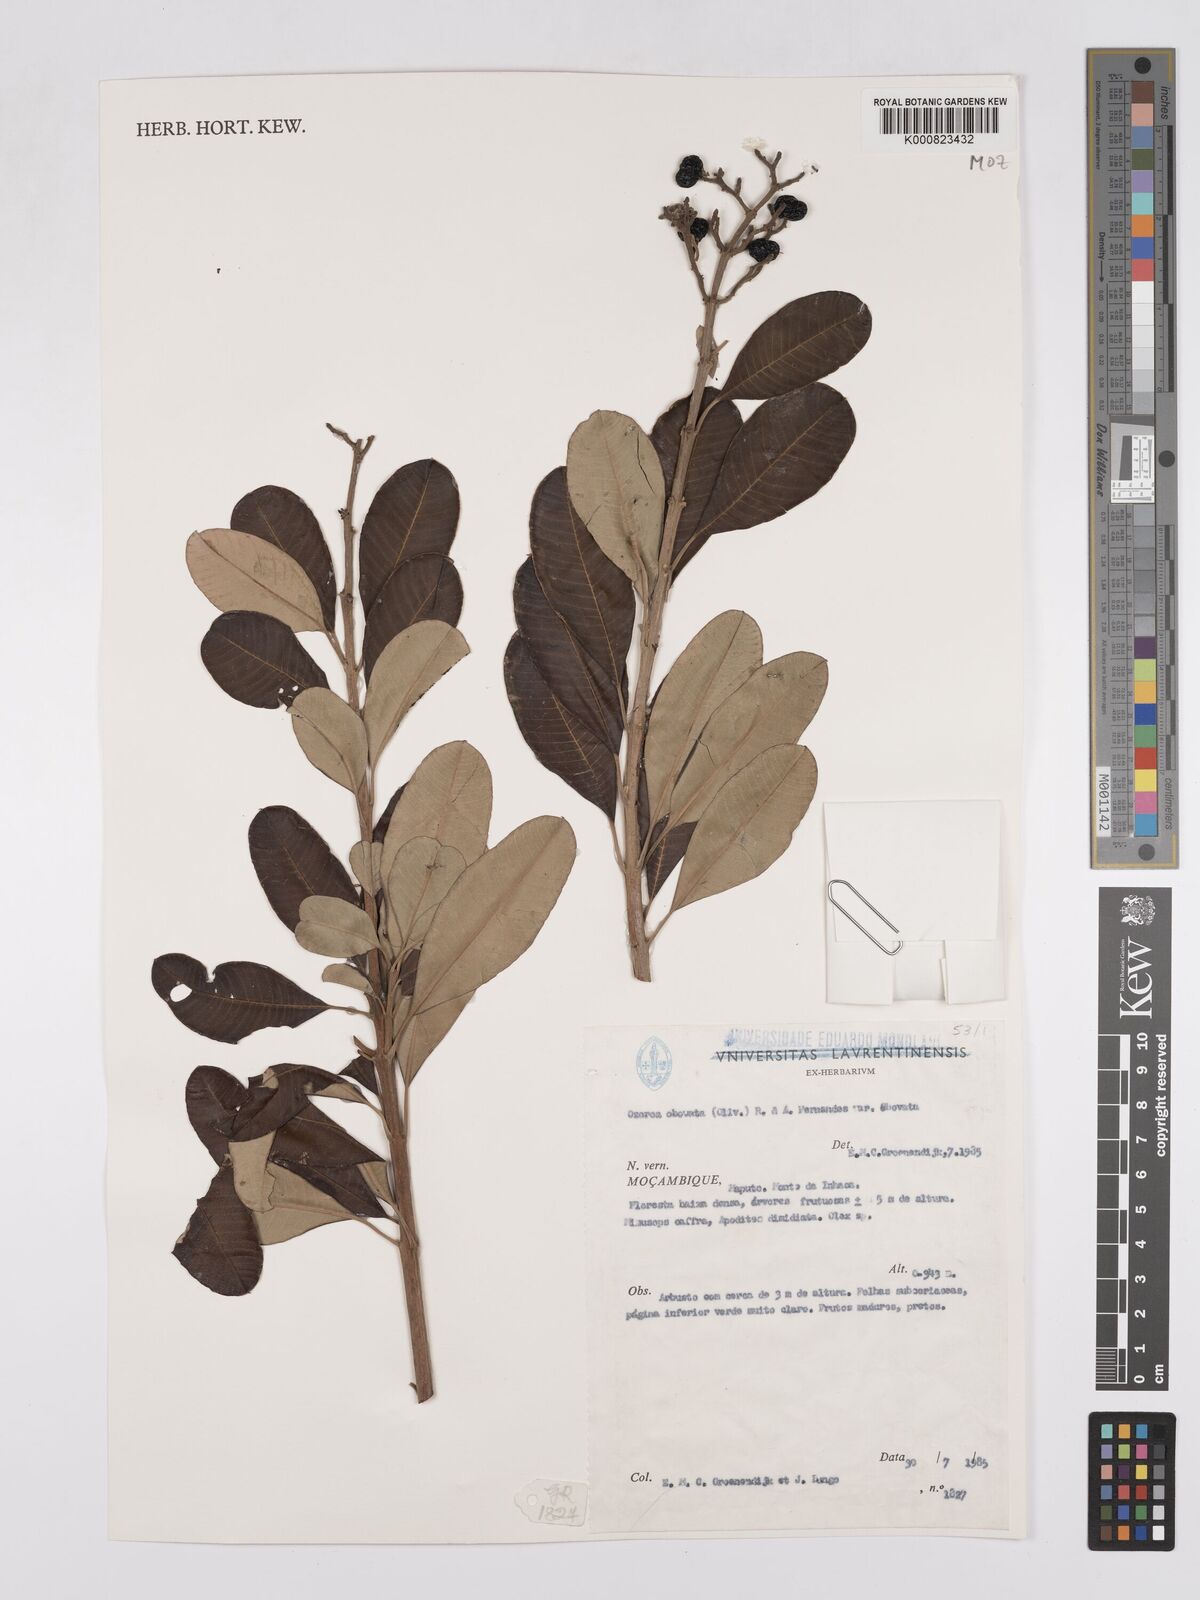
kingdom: Plantae
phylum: Tracheophyta
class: Magnoliopsida
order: Sapindales
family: Anacardiaceae
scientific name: Anacardiaceae
